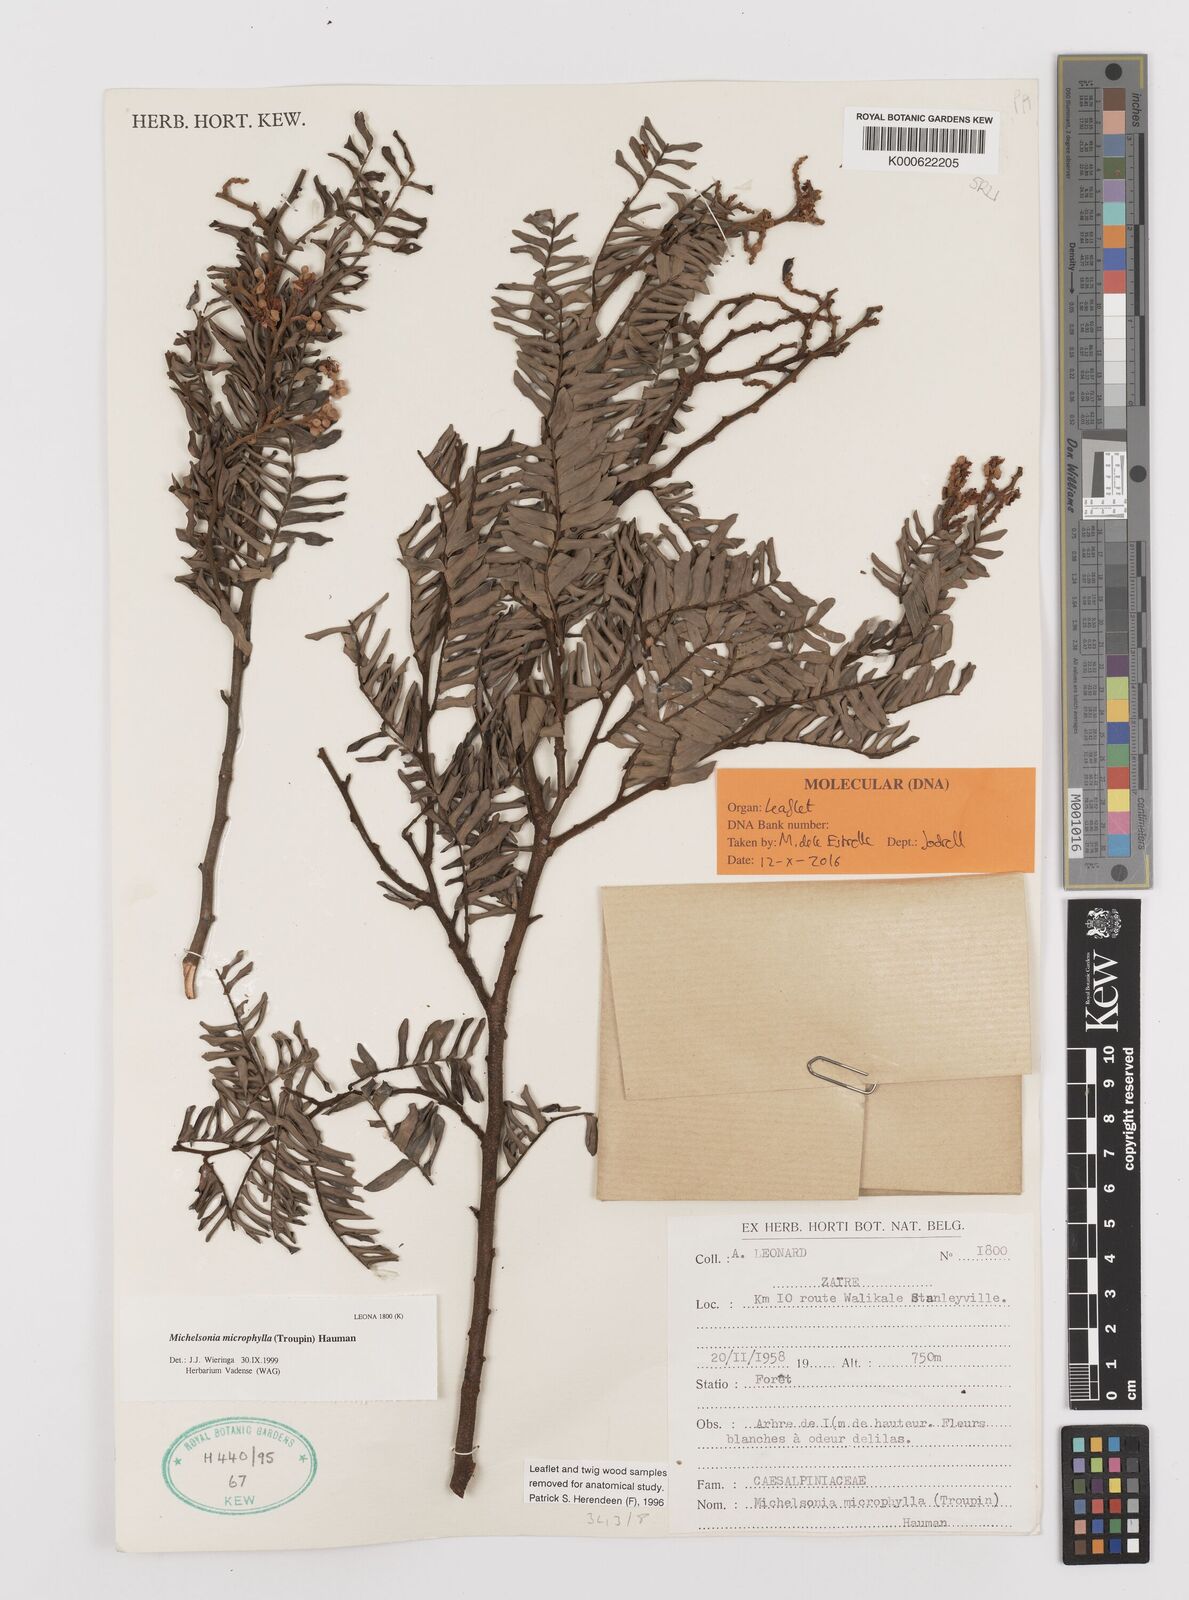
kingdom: Plantae
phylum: Tracheophyta
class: Magnoliopsida
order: Fabales
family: Fabaceae
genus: Michelsonia
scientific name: Michelsonia microphylla
